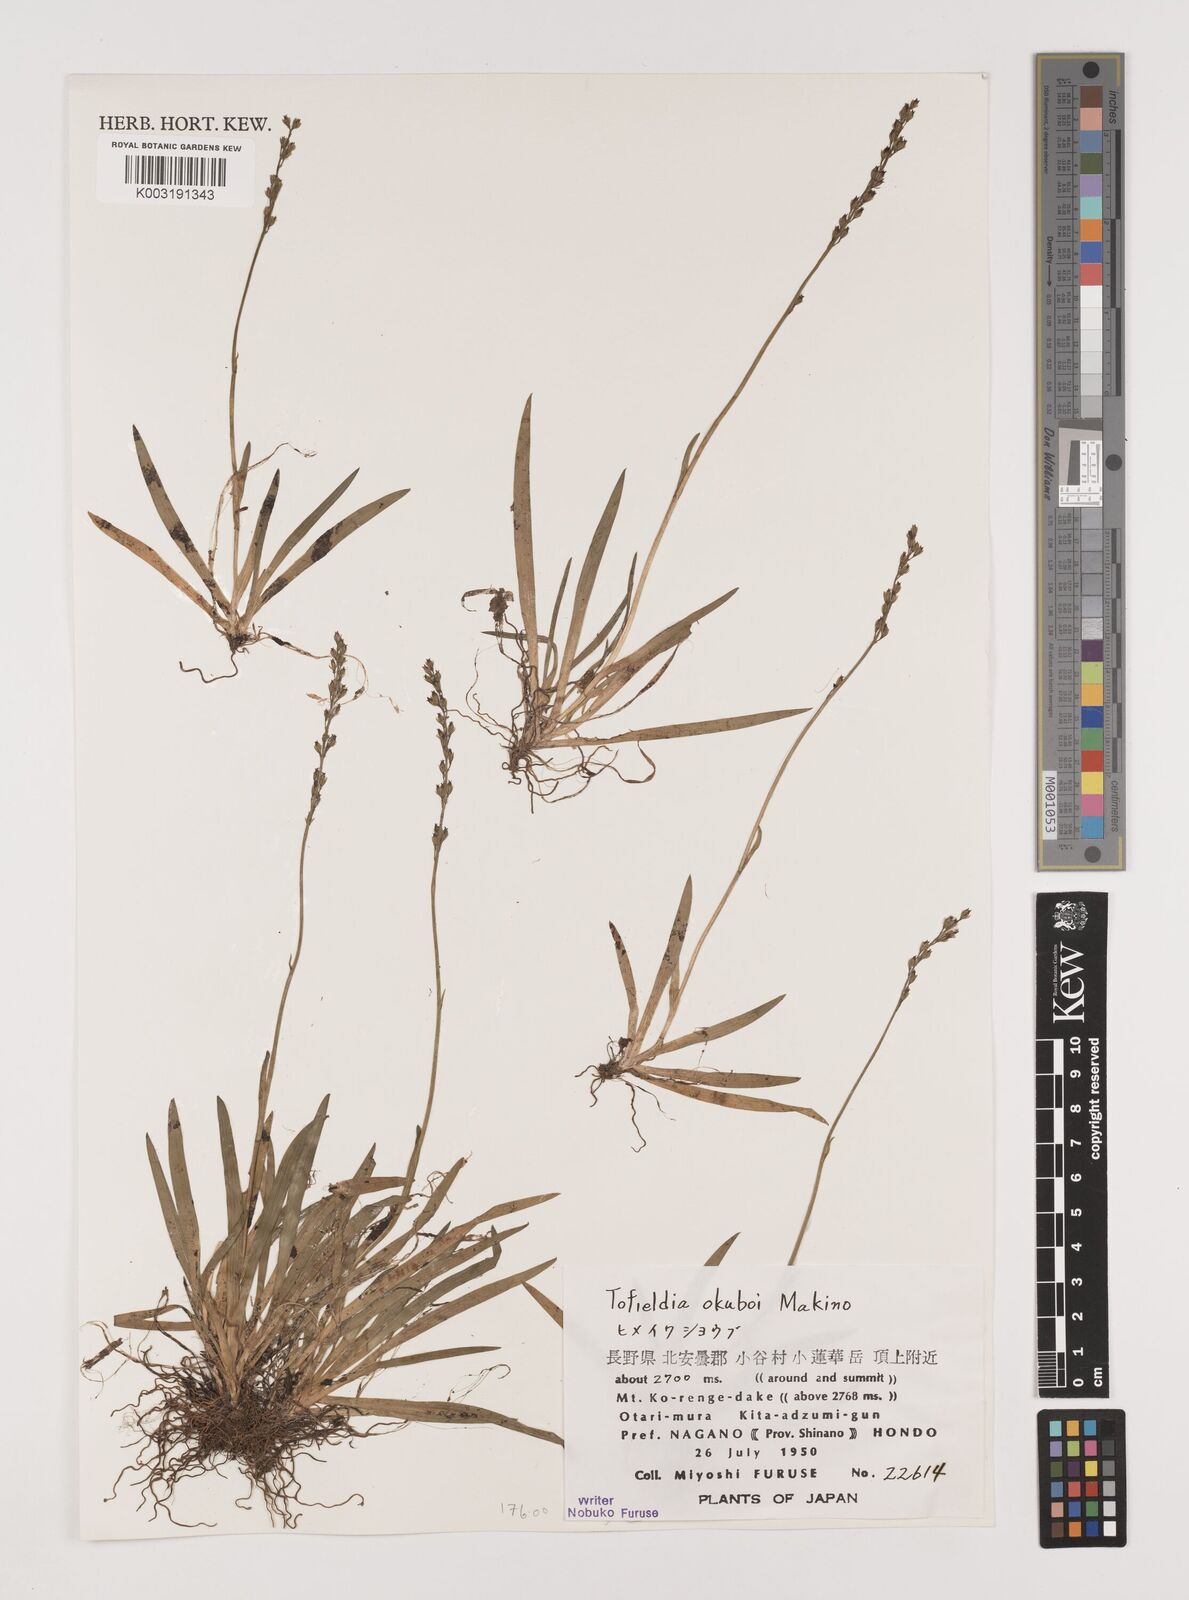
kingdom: Plantae
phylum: Tracheophyta
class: Liliopsida
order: Alismatales
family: Tofieldiaceae
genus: Tofieldia
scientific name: Tofieldia okuboi
